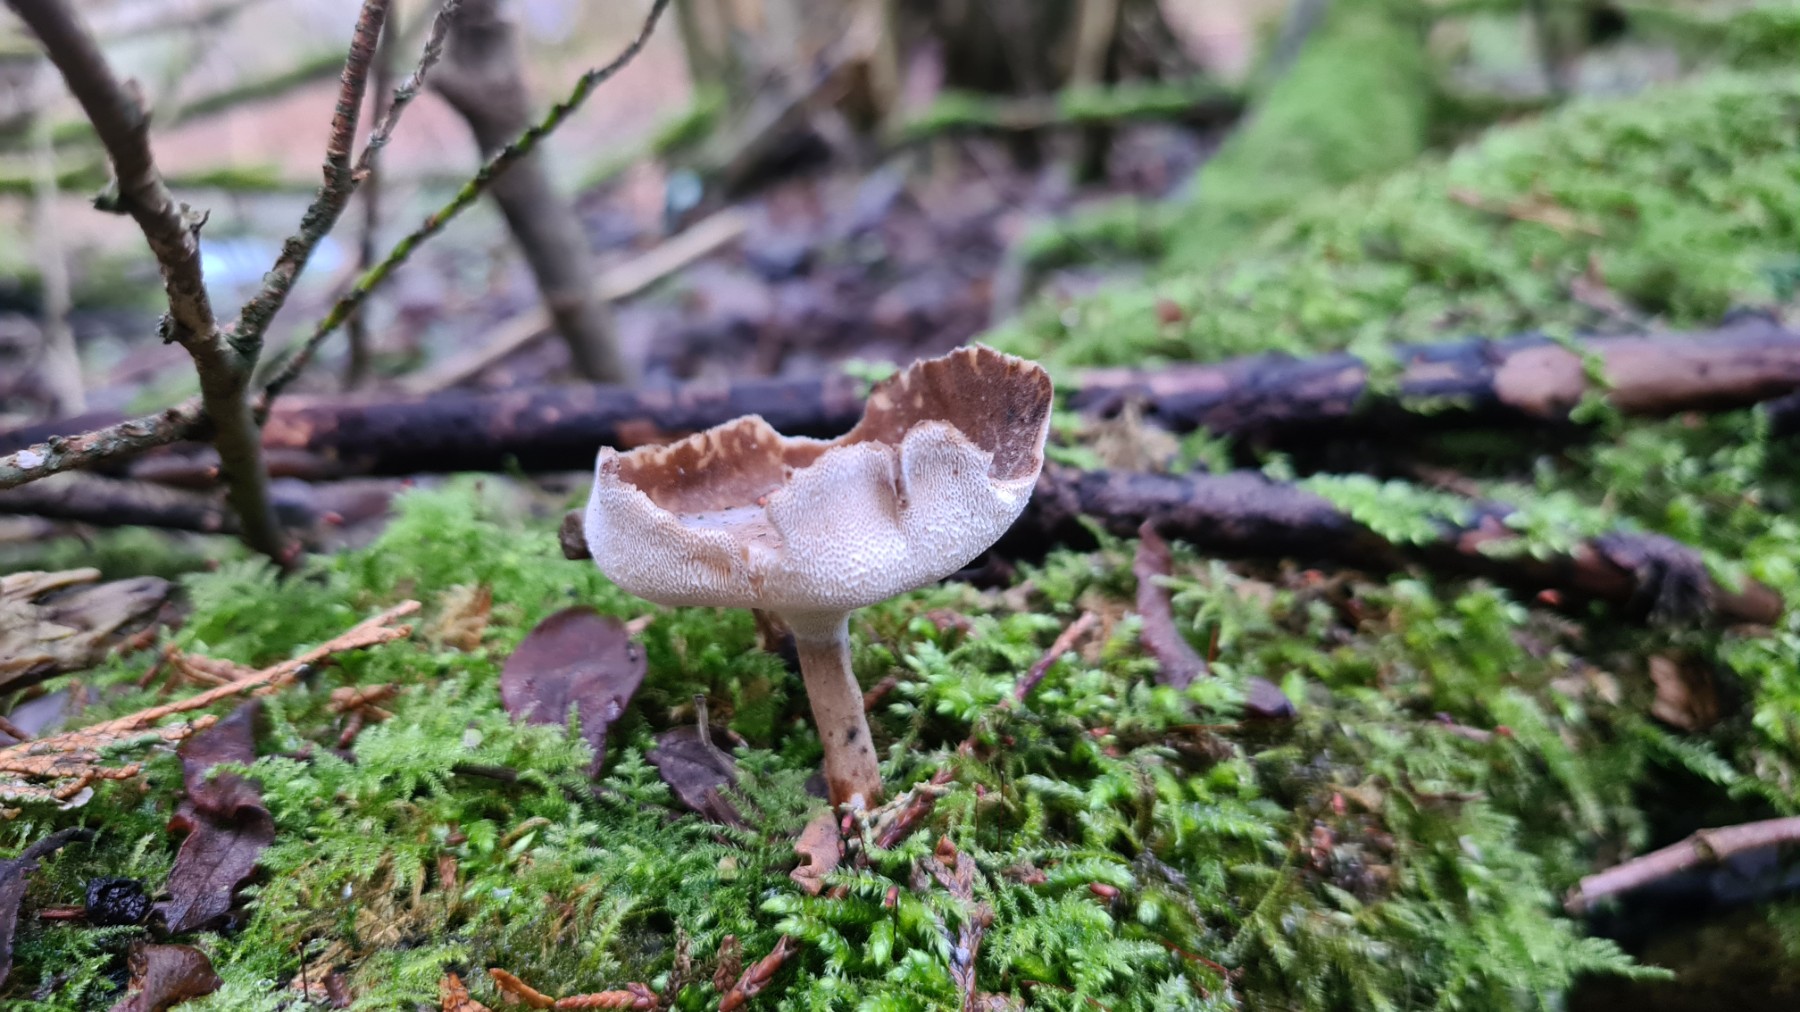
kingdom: Fungi
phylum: Basidiomycota
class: Agaricomycetes
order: Polyporales
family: Polyporaceae
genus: Lentinus
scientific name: Lentinus brumalis
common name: vinter-stilkporesvamp
